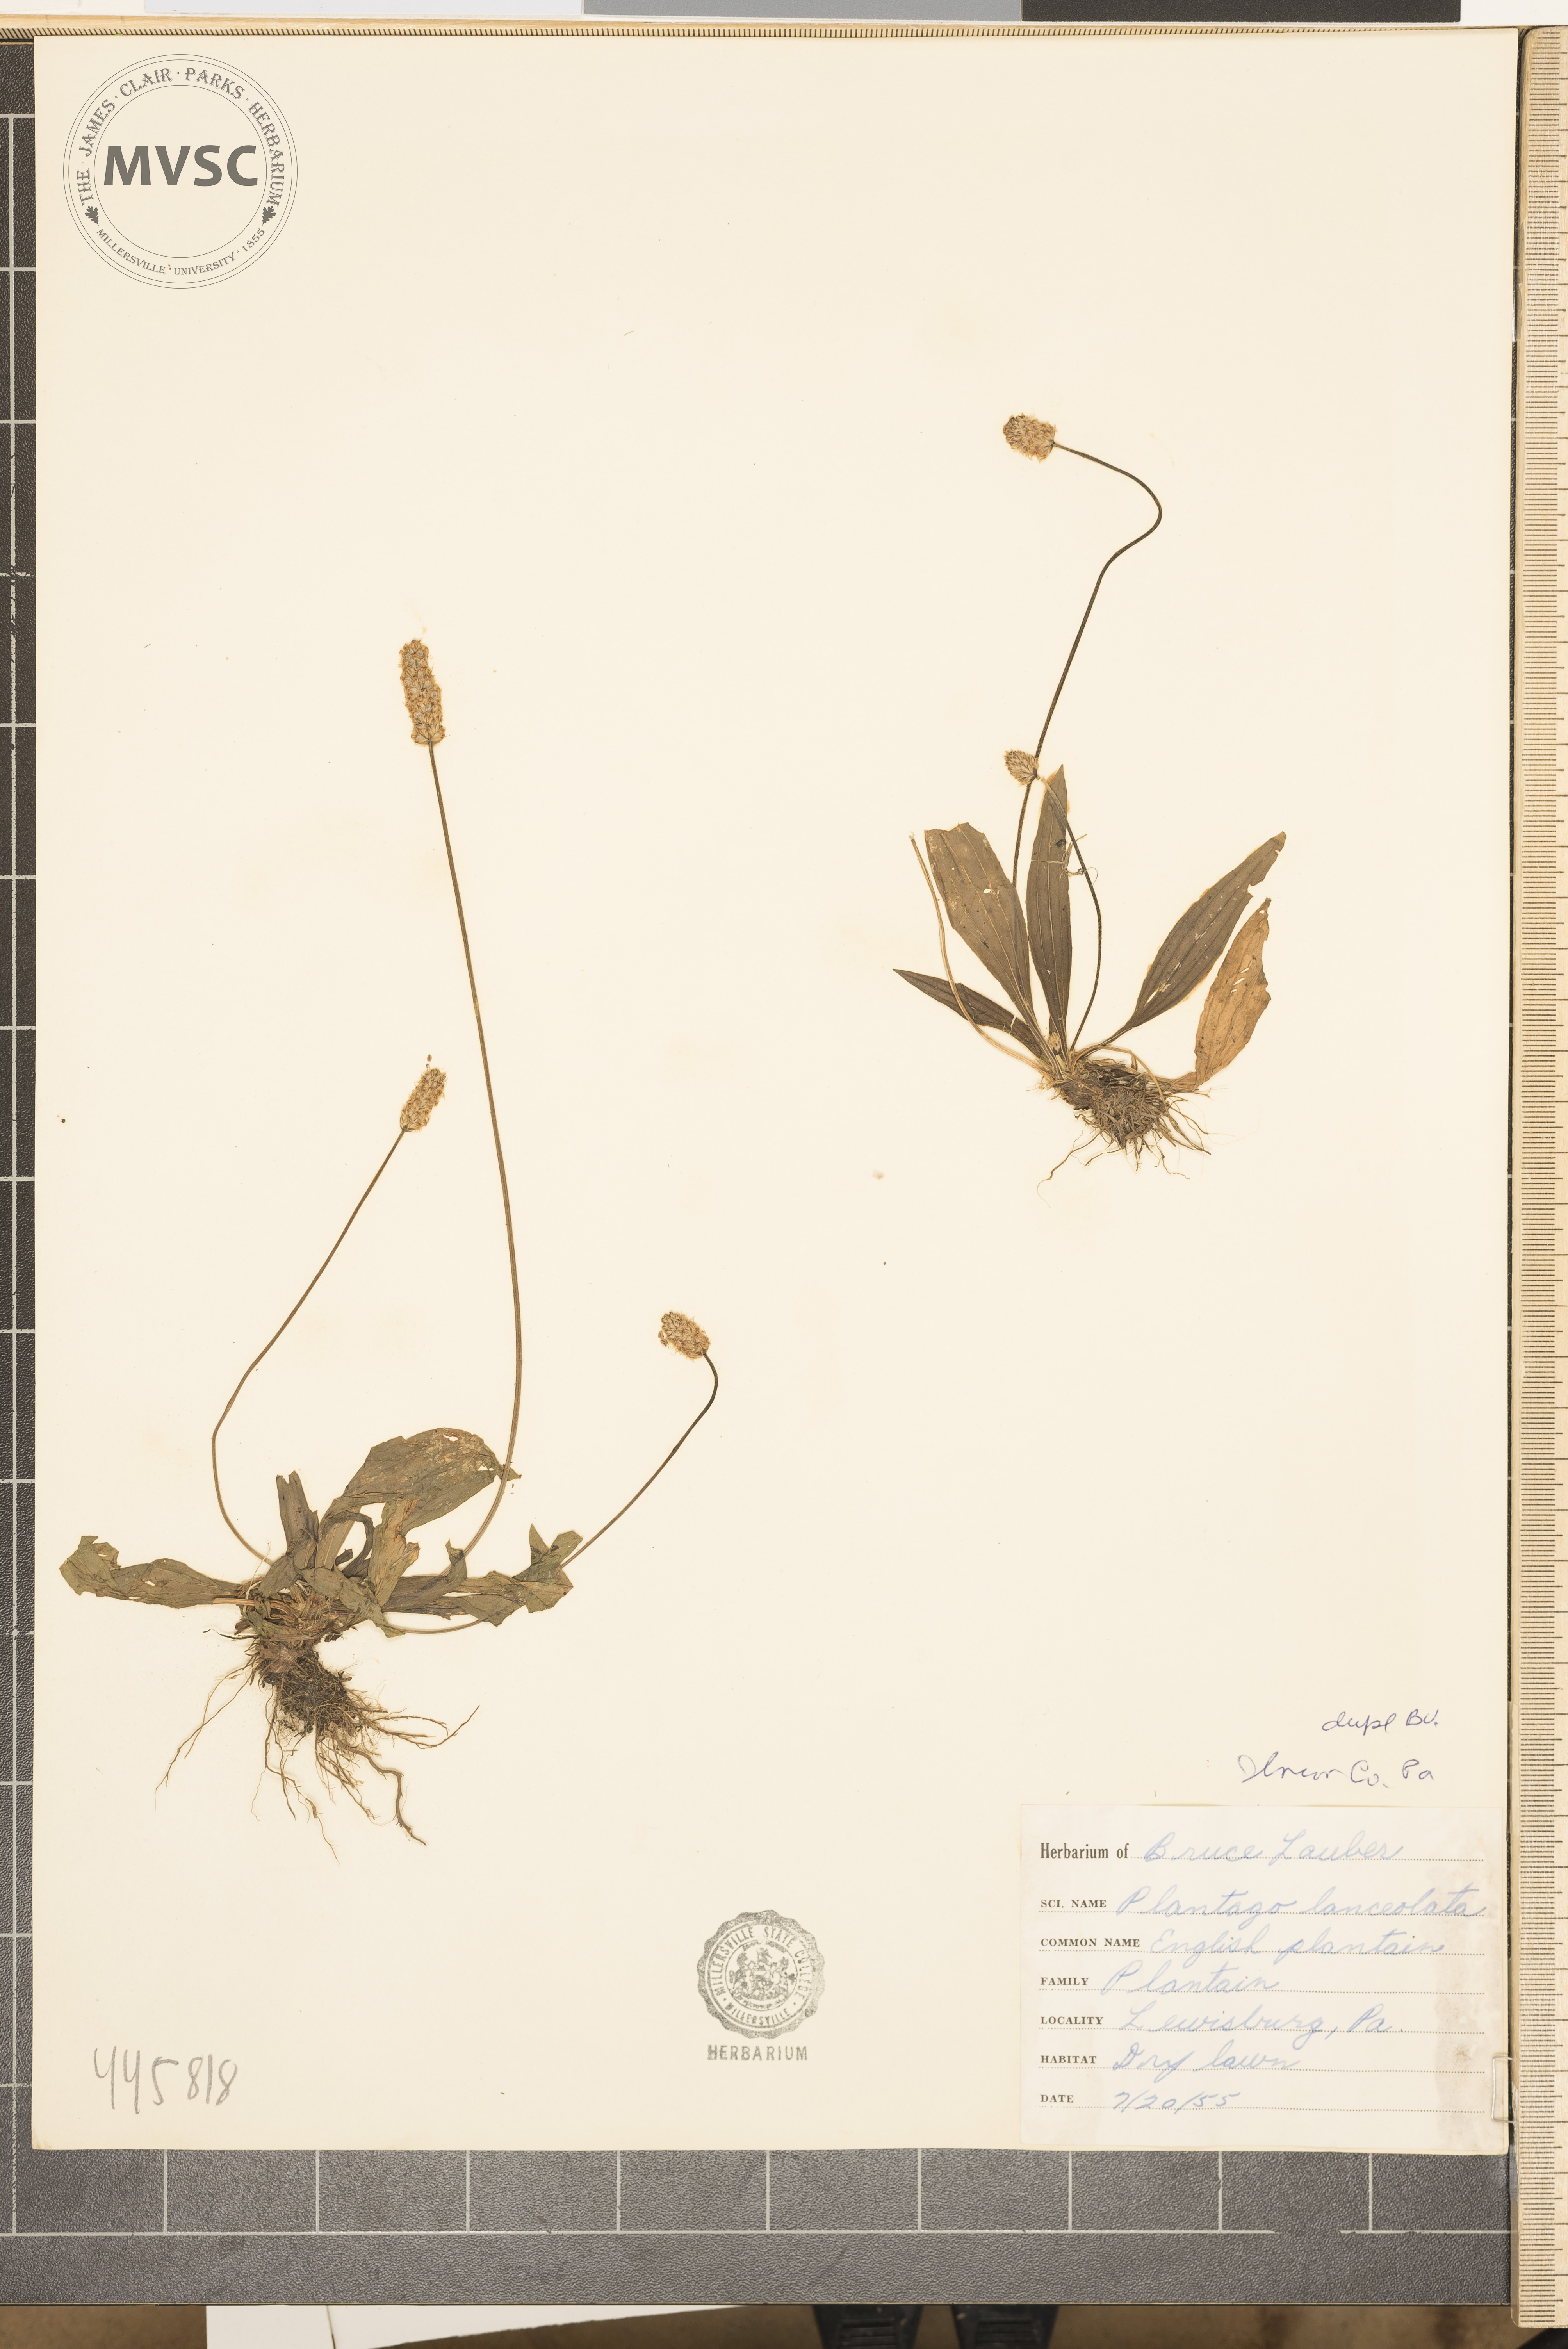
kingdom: Plantae
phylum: Tracheophyta
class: Magnoliopsida
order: Lamiales
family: Plantaginaceae
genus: Plantago
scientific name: Plantago lanceolata
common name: English plantain
